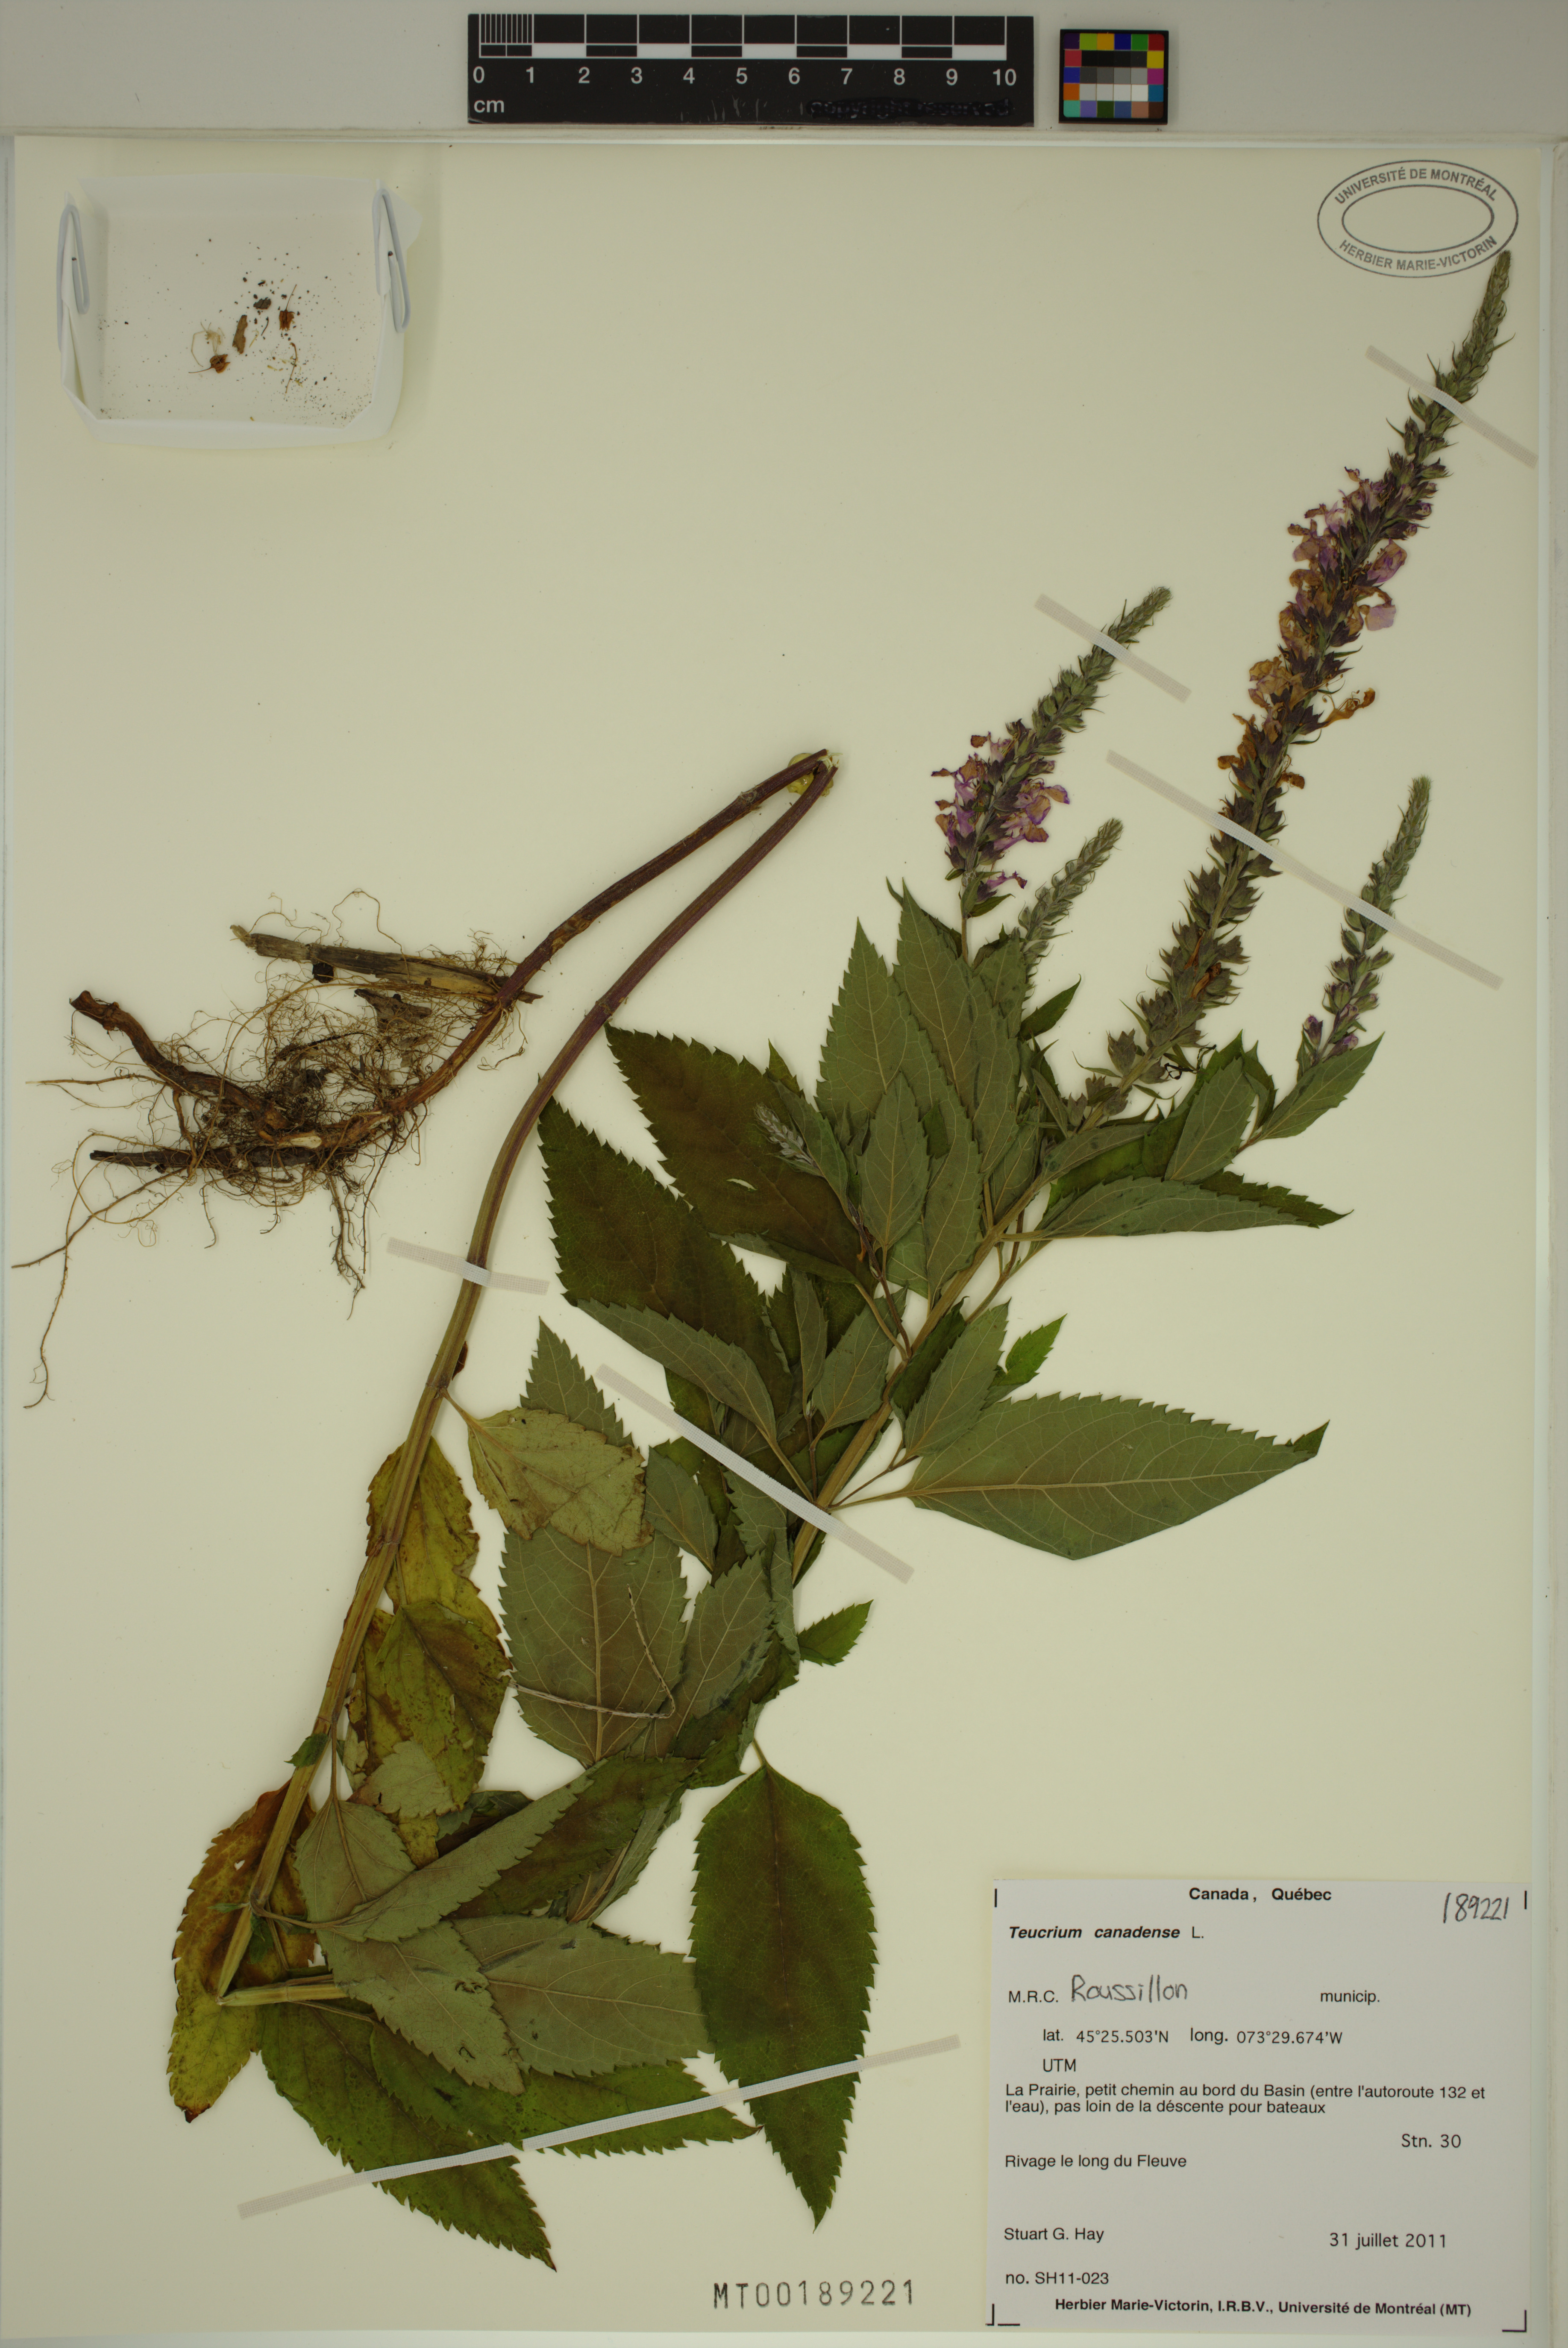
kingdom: Plantae
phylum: Tracheophyta
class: Magnoliopsida
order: Lamiales
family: Lamiaceae
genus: Teucrium
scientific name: Teucrium canadense
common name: American germander
